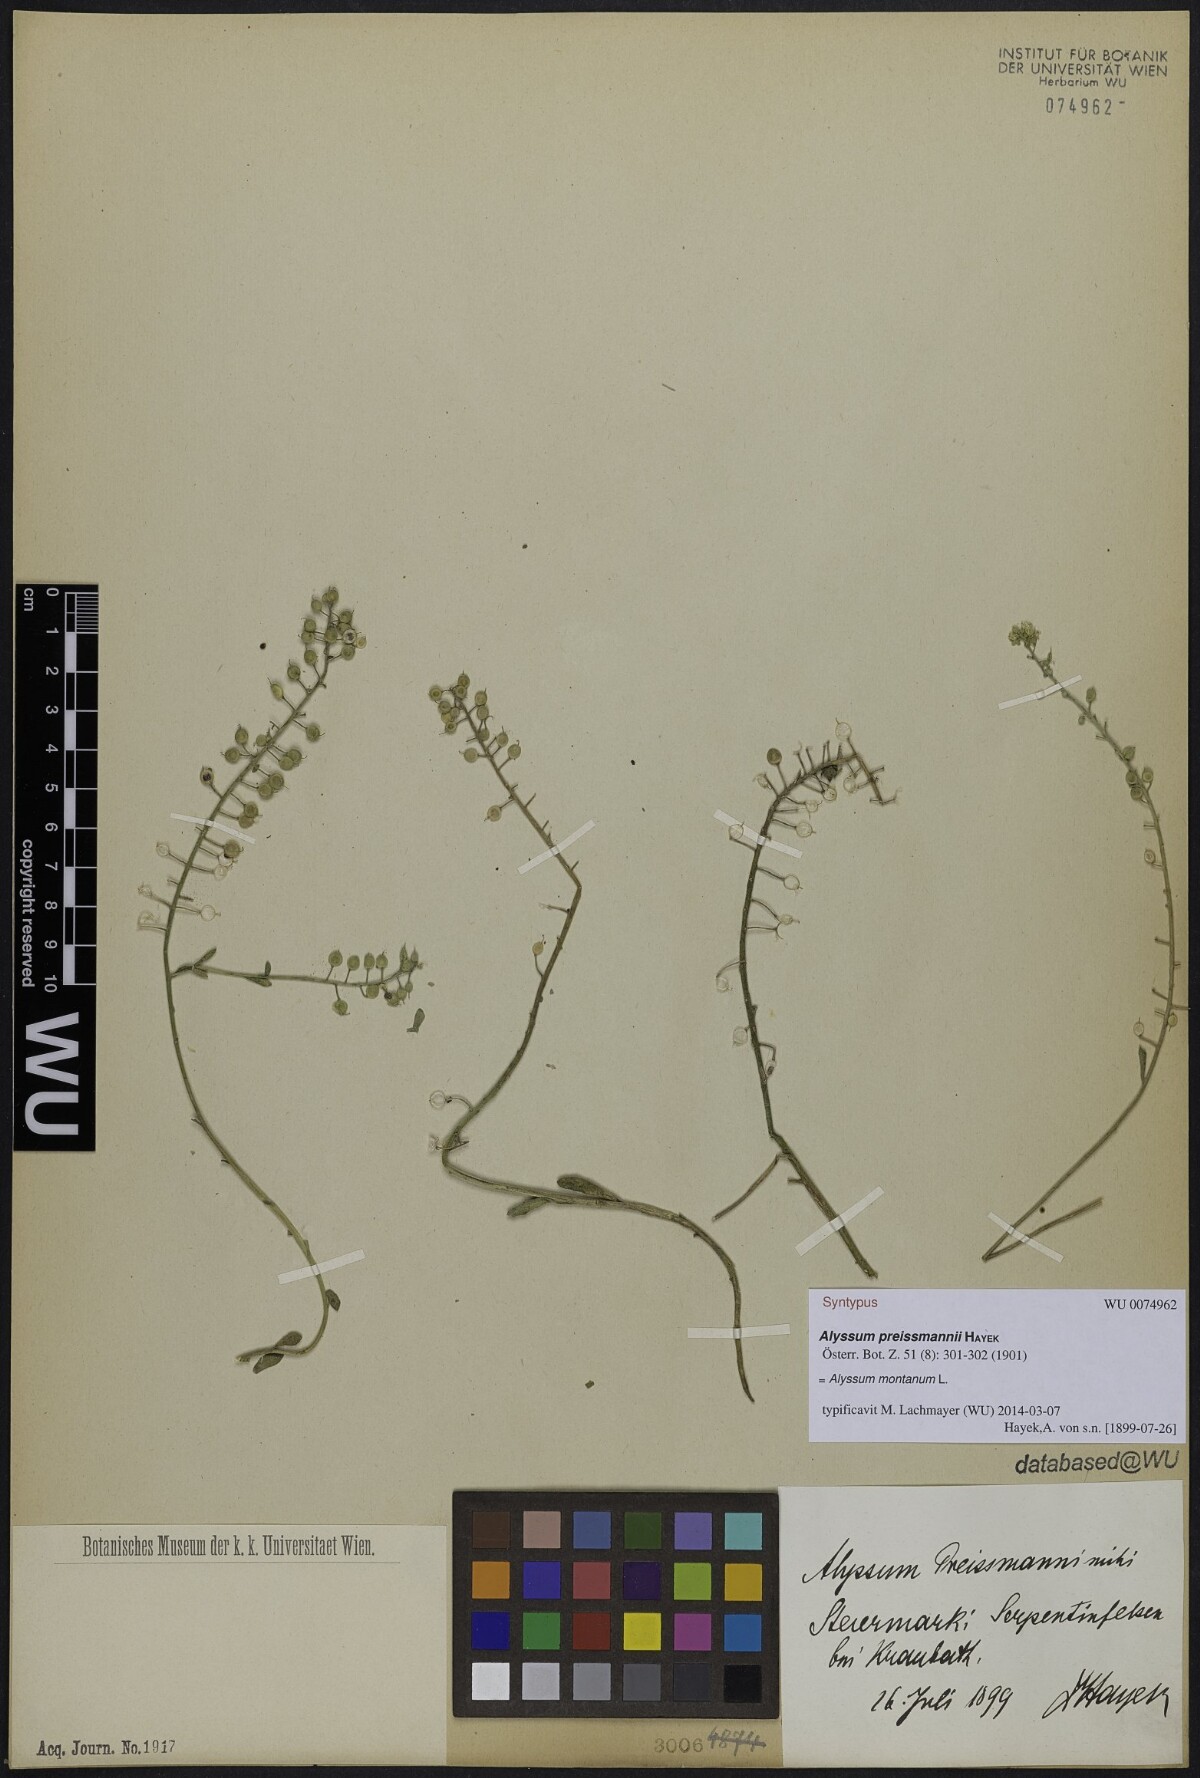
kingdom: Plantae
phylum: Tracheophyta
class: Magnoliopsida
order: Brassicales
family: Brassicaceae
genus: Alyssum
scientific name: Alyssum gmelinii
